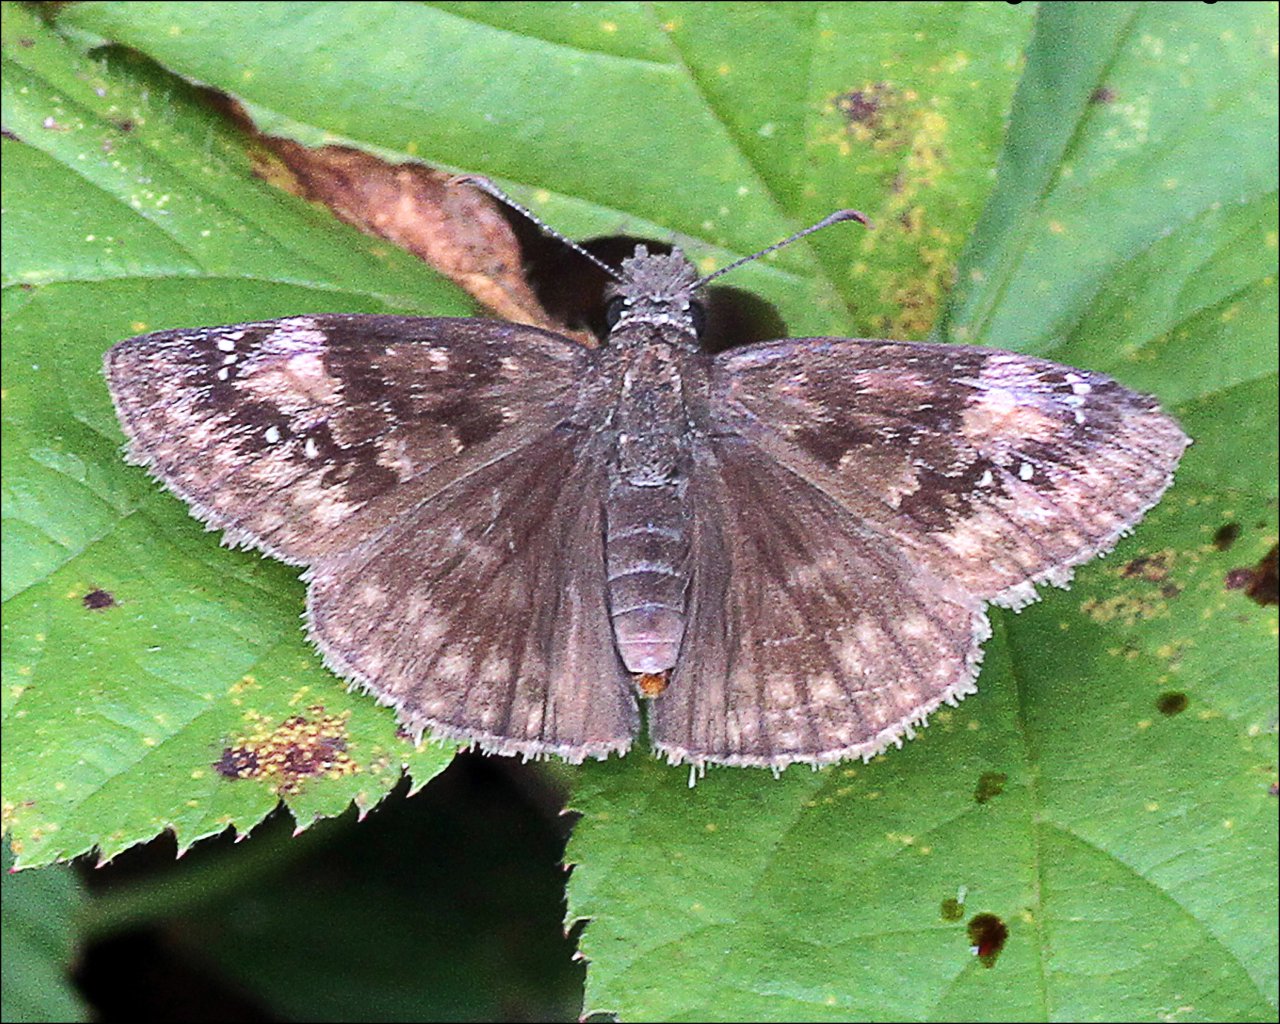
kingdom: Animalia
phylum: Arthropoda
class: Insecta
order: Lepidoptera
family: Hesperiidae
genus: Gesta
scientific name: Gesta
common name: Wild Indigo Duskywing
